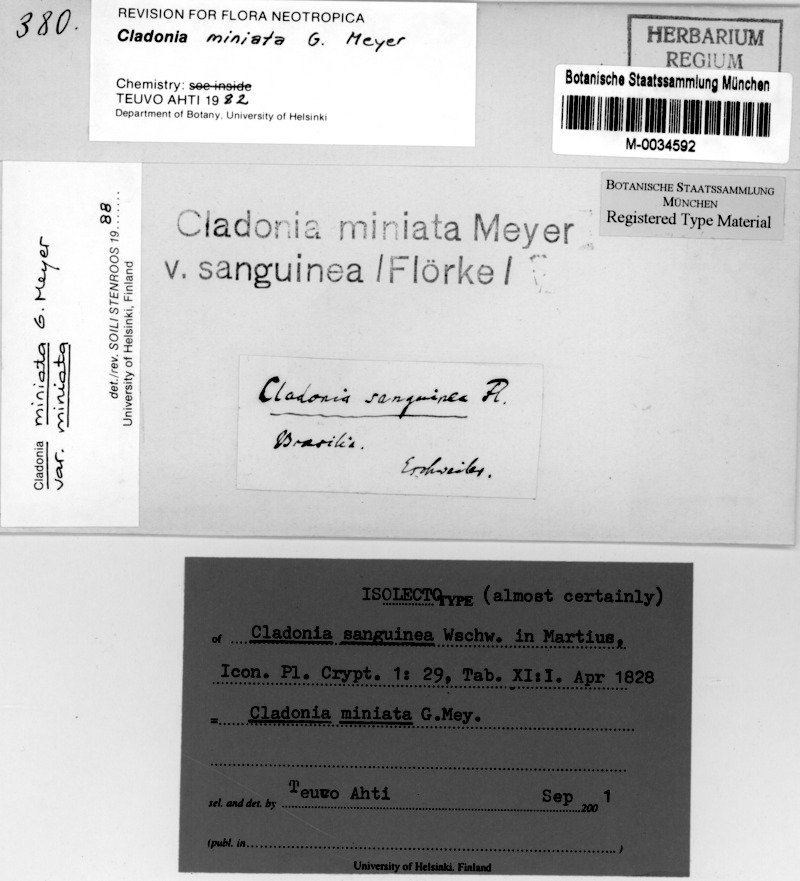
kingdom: Fungi
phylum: Ascomycota
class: Lecanoromycetes
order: Lecanorales
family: Cladoniaceae
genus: Cladonia
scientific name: Cladonia miniata
